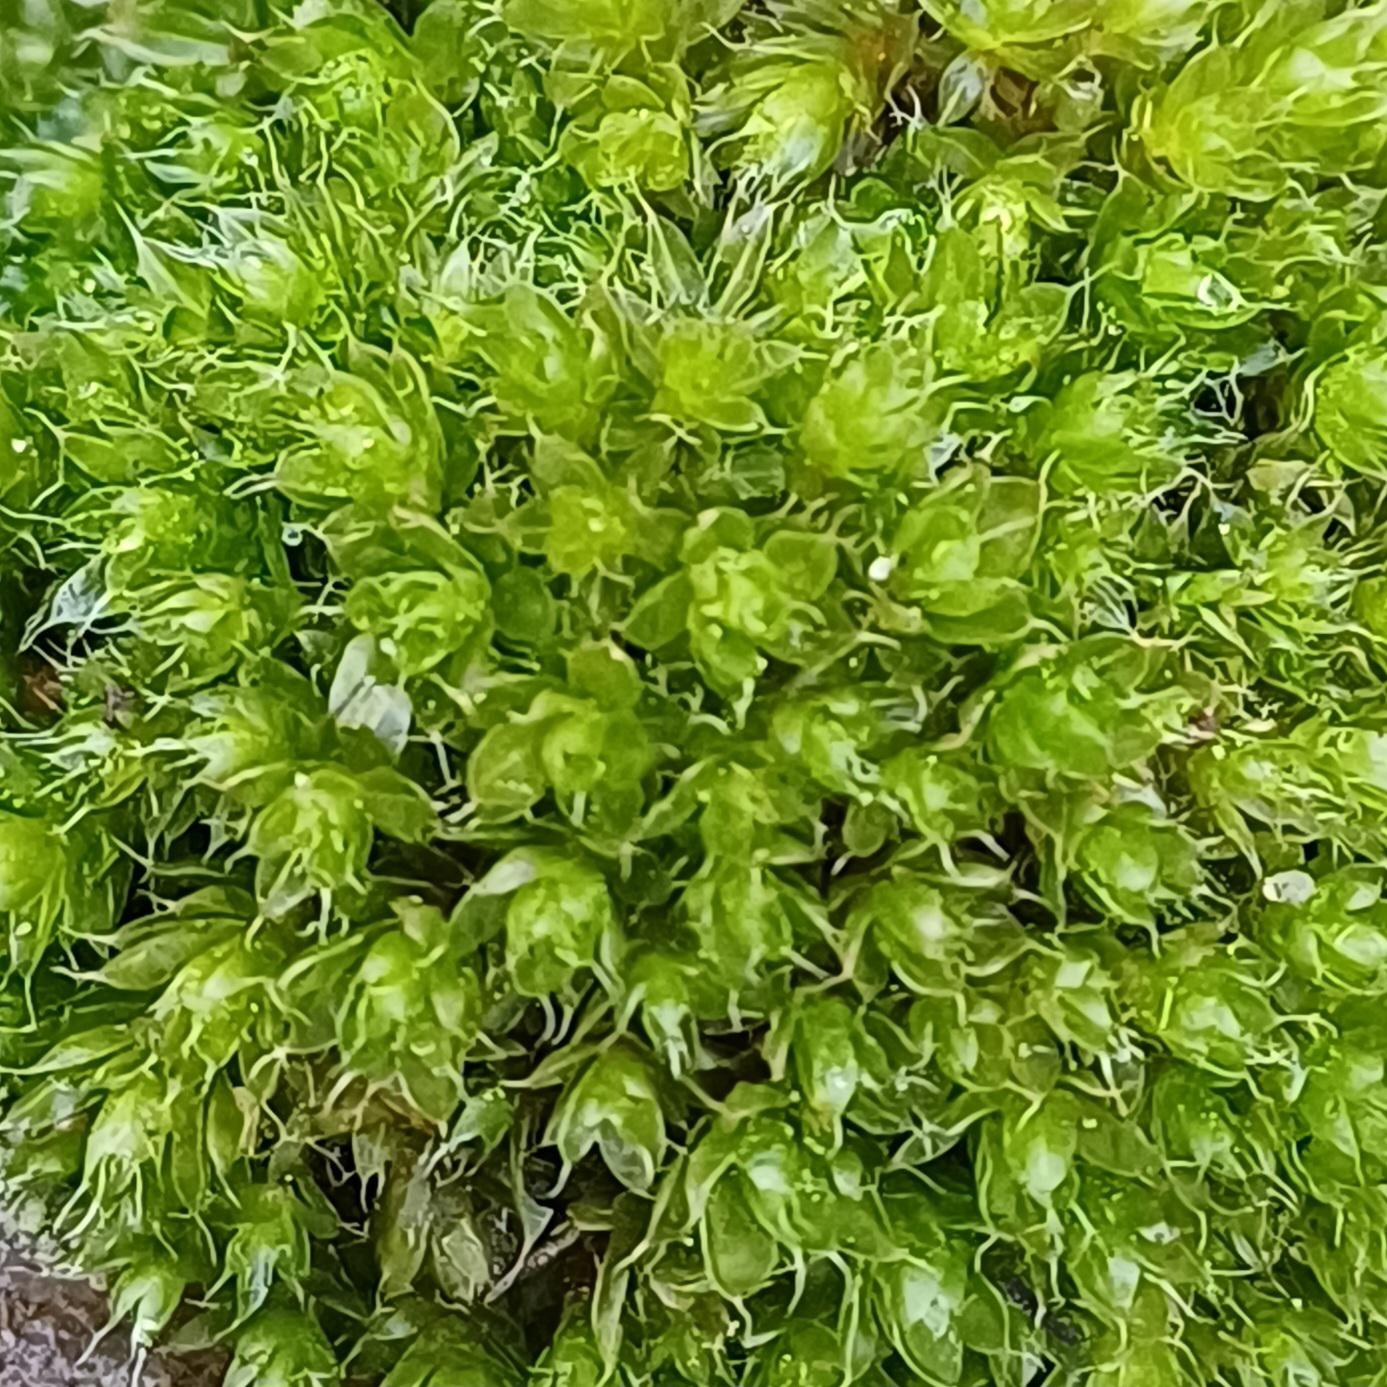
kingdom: Plantae
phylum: Bryophyta
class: Bryopsida
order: Bryales
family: Bryaceae
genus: Rosulabryum
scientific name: Rosulabryum capillare
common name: Hårspidset bryum
